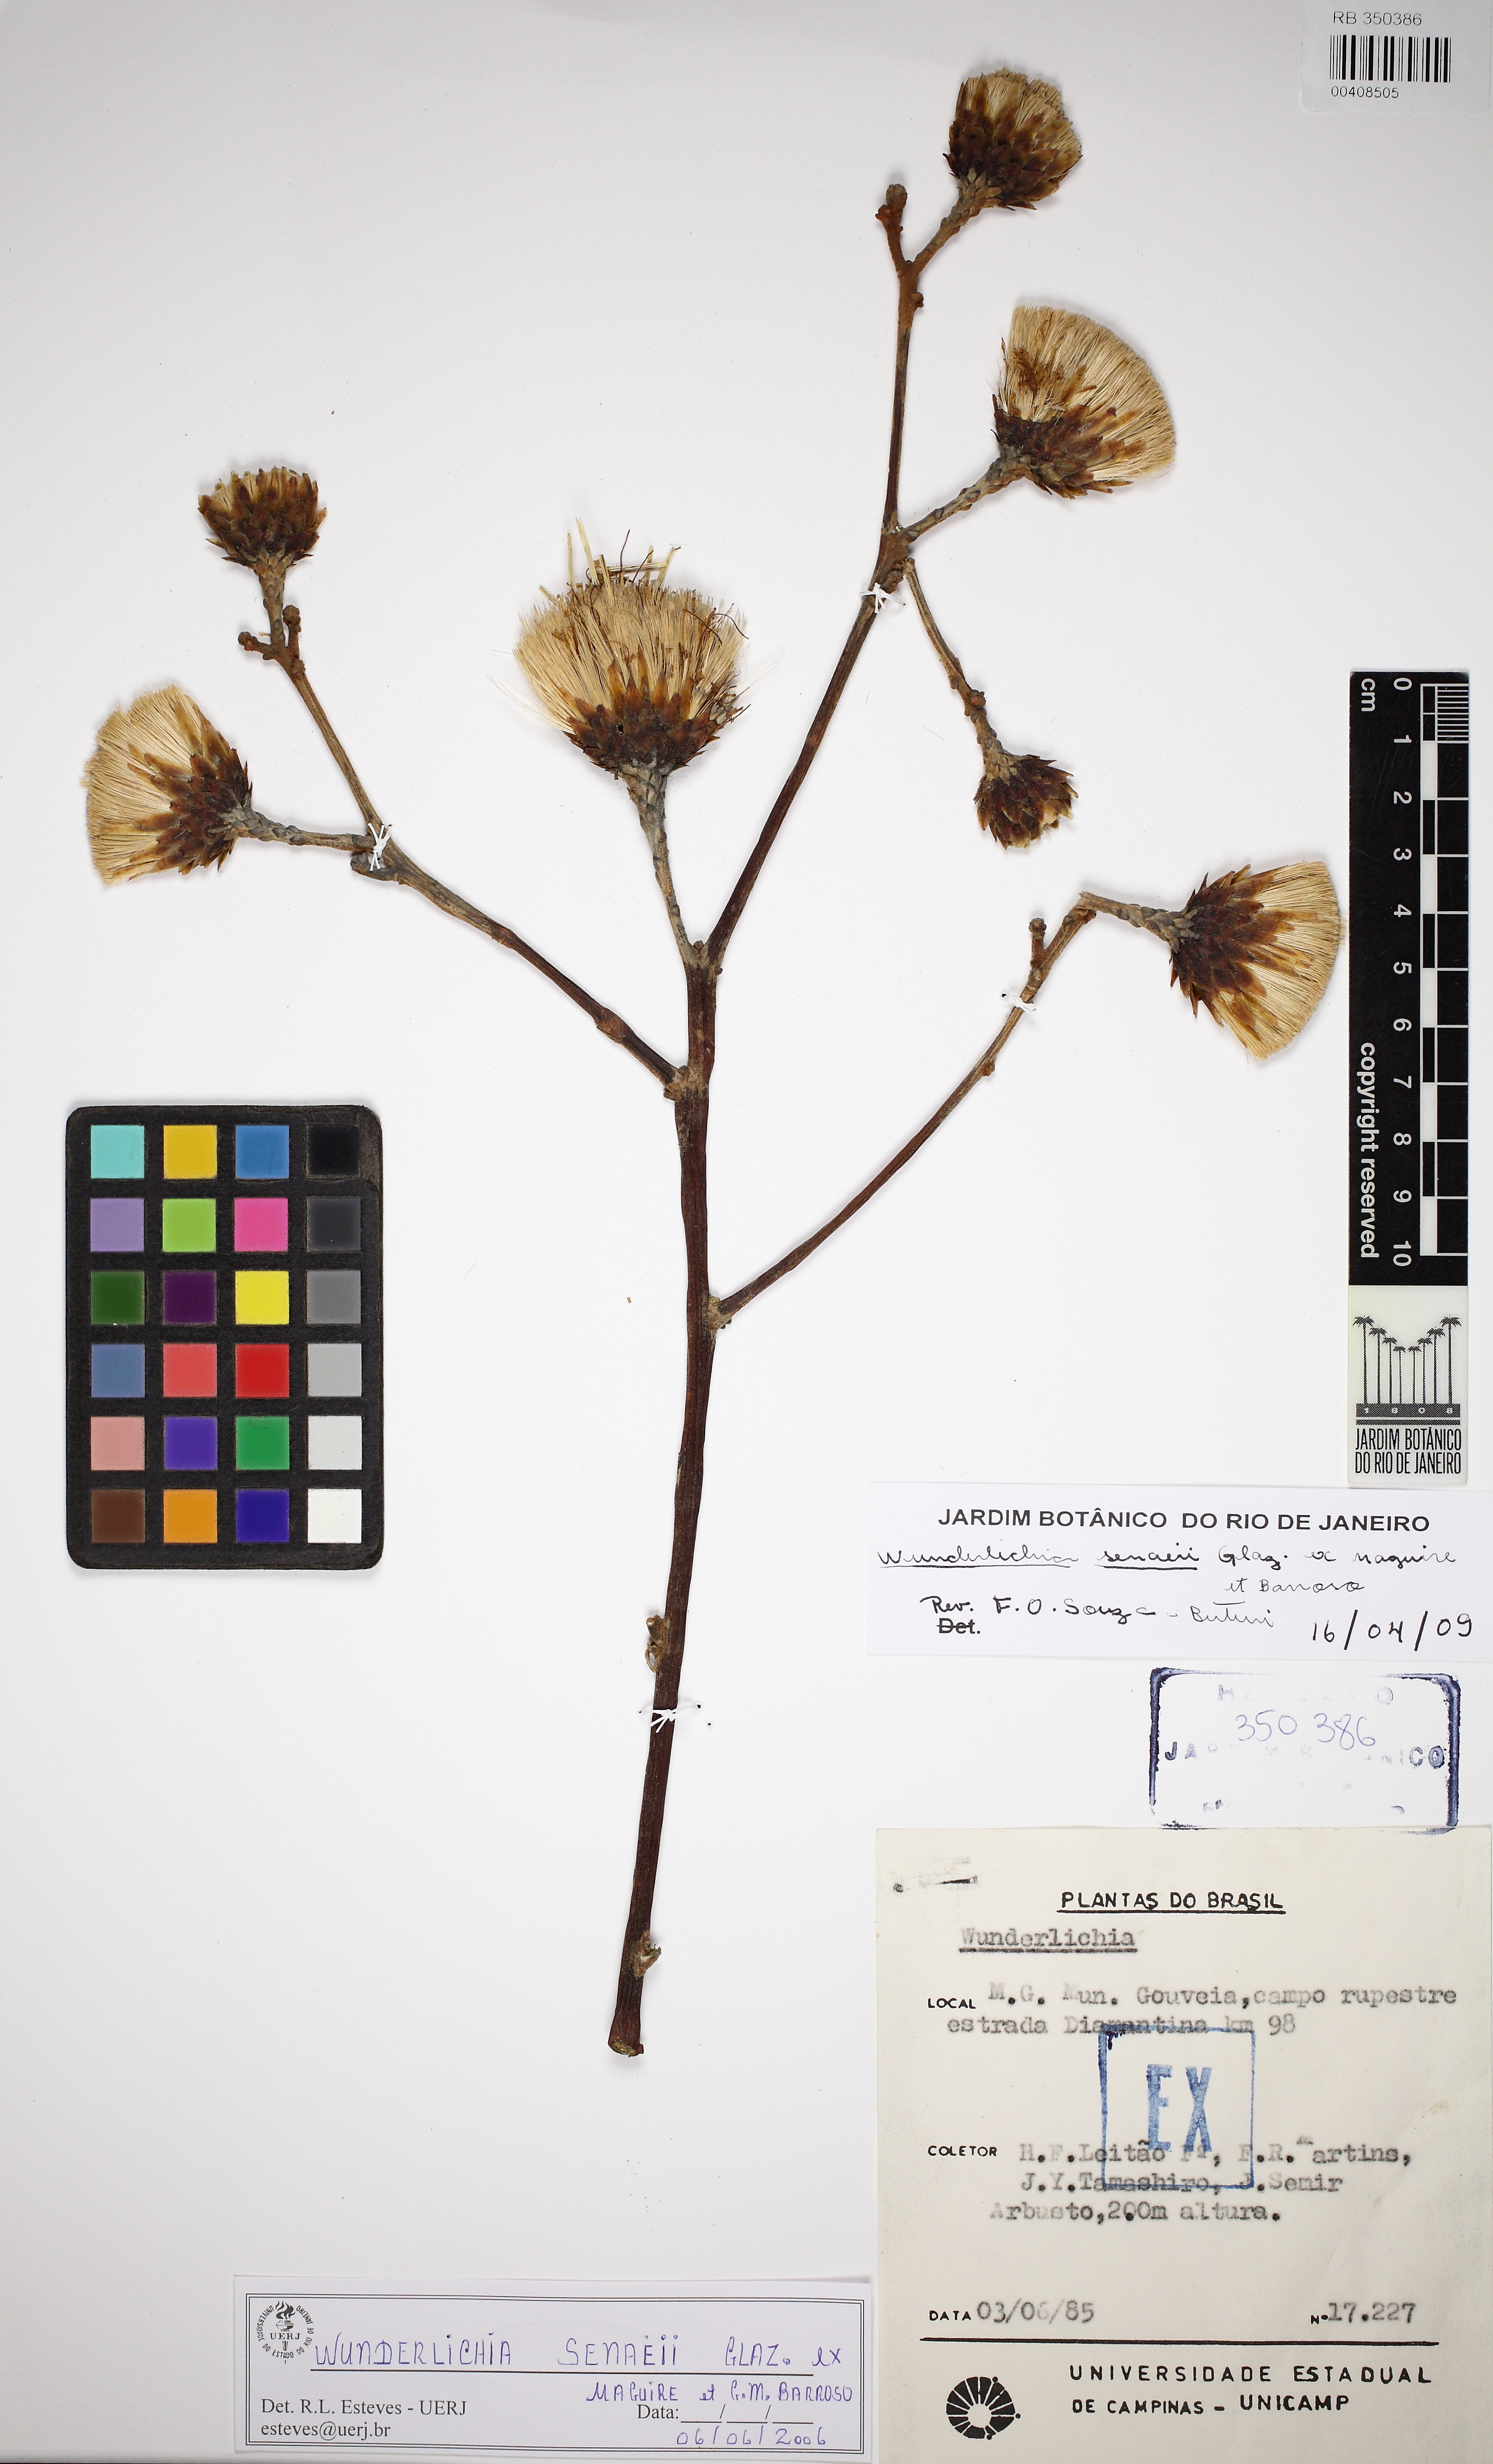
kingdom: Plantae
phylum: Tracheophyta
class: Magnoliopsida
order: Asterales
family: Asteraceae
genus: Wunderlichia
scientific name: Wunderlichia senaeii
